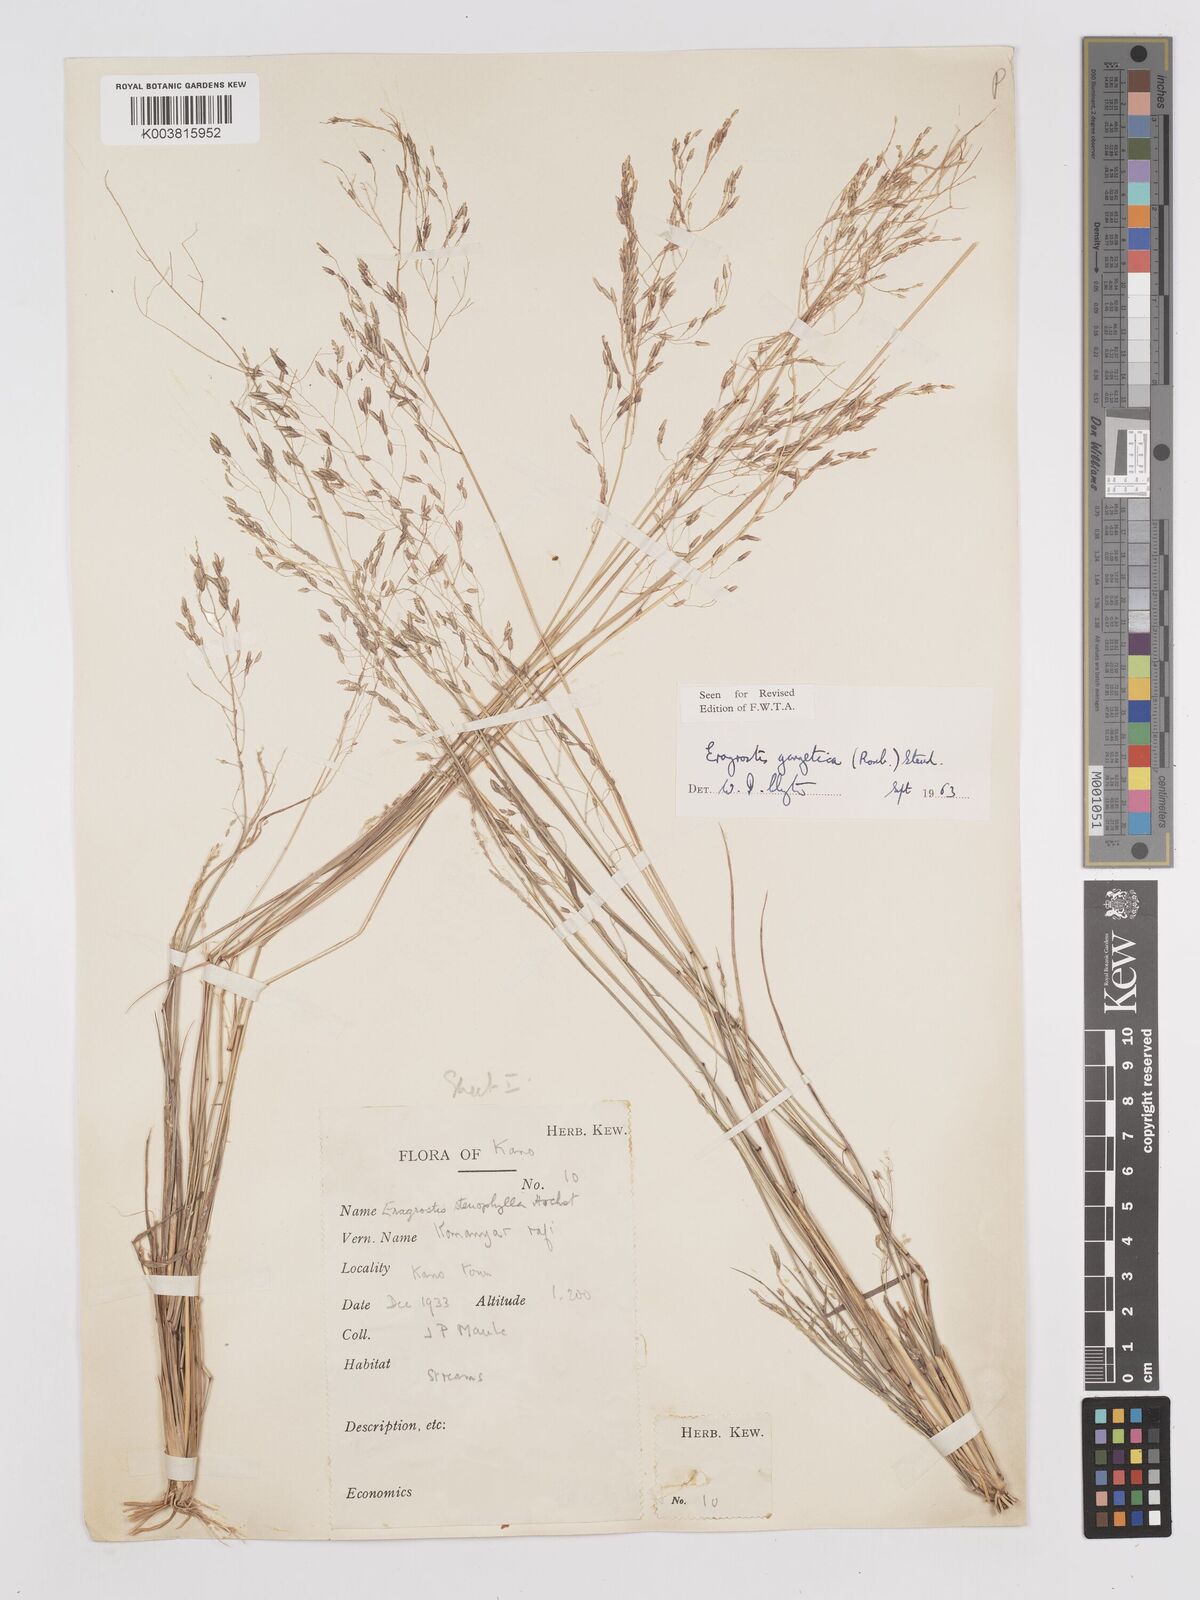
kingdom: Plantae
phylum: Tracheophyta
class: Liliopsida
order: Poales
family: Poaceae
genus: Eragrostis
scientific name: Eragrostis gangetica
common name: Slimflower lovegrass
